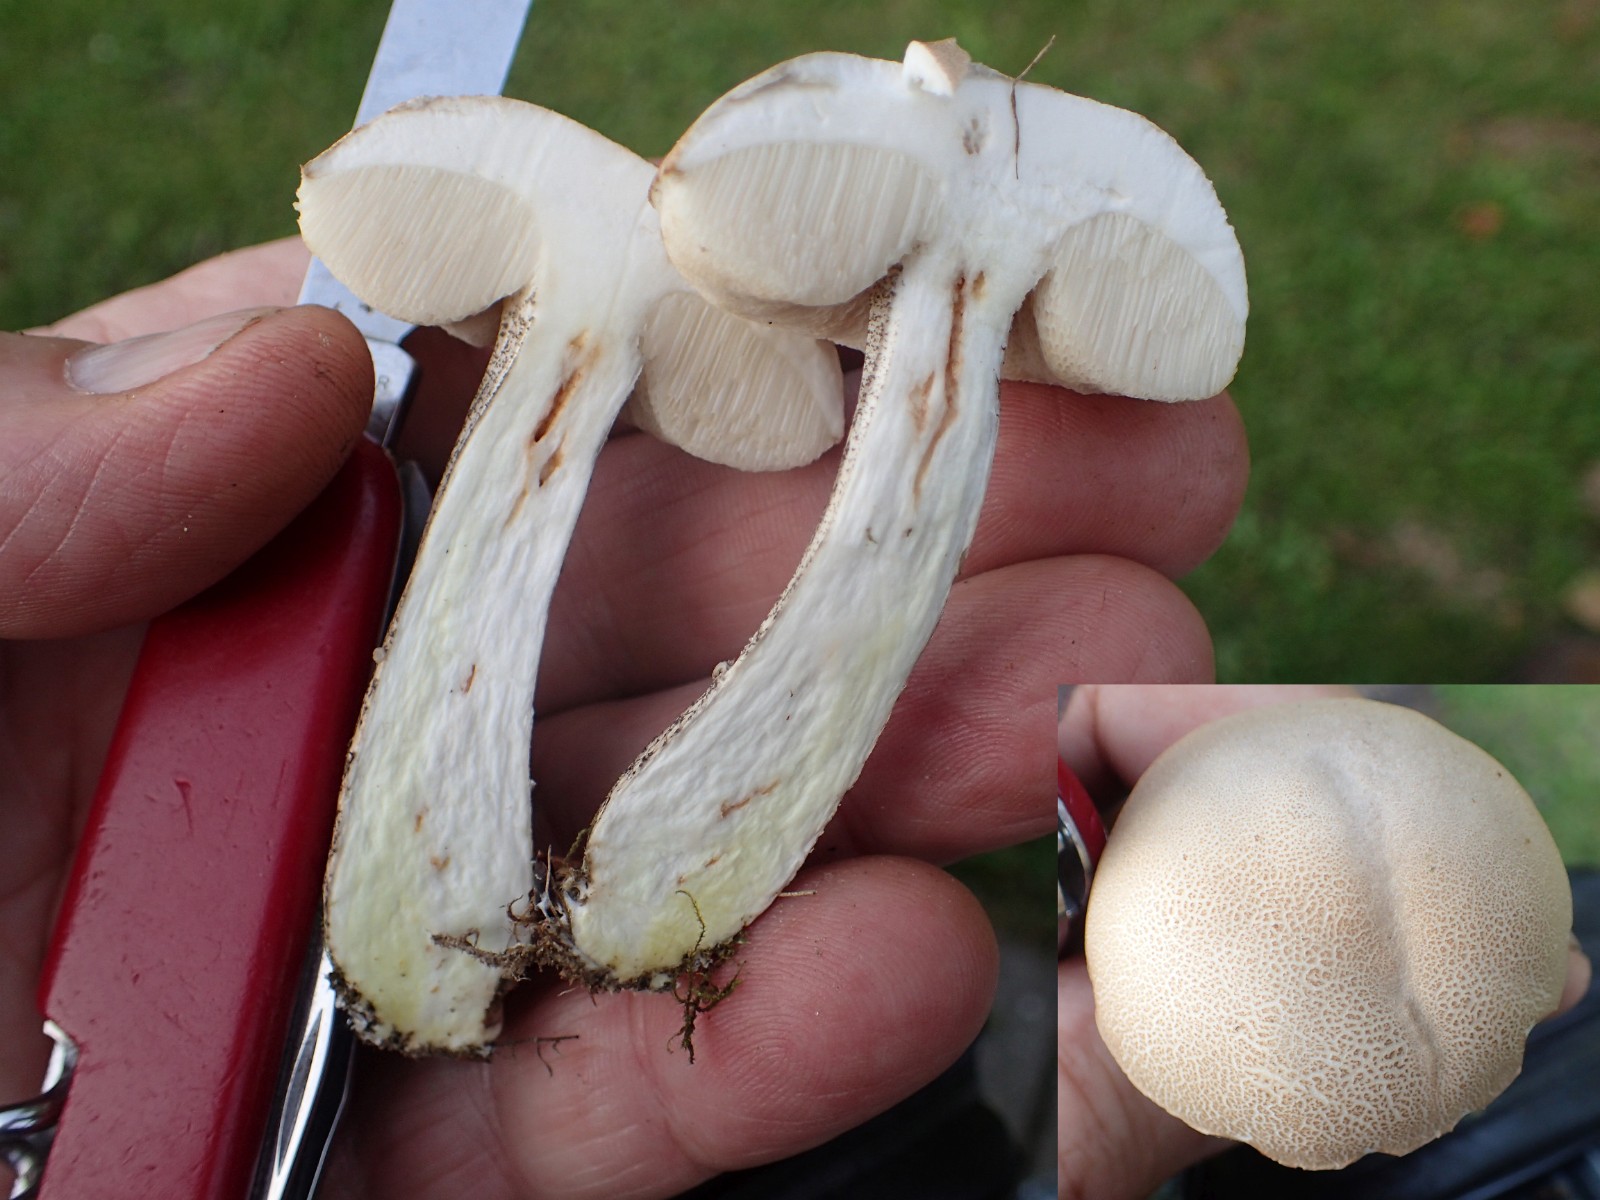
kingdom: Fungi
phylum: Basidiomycota
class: Agaricomycetes
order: Boletales
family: Boletaceae
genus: Leccinum
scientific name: Leccinum
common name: skælrørhat
